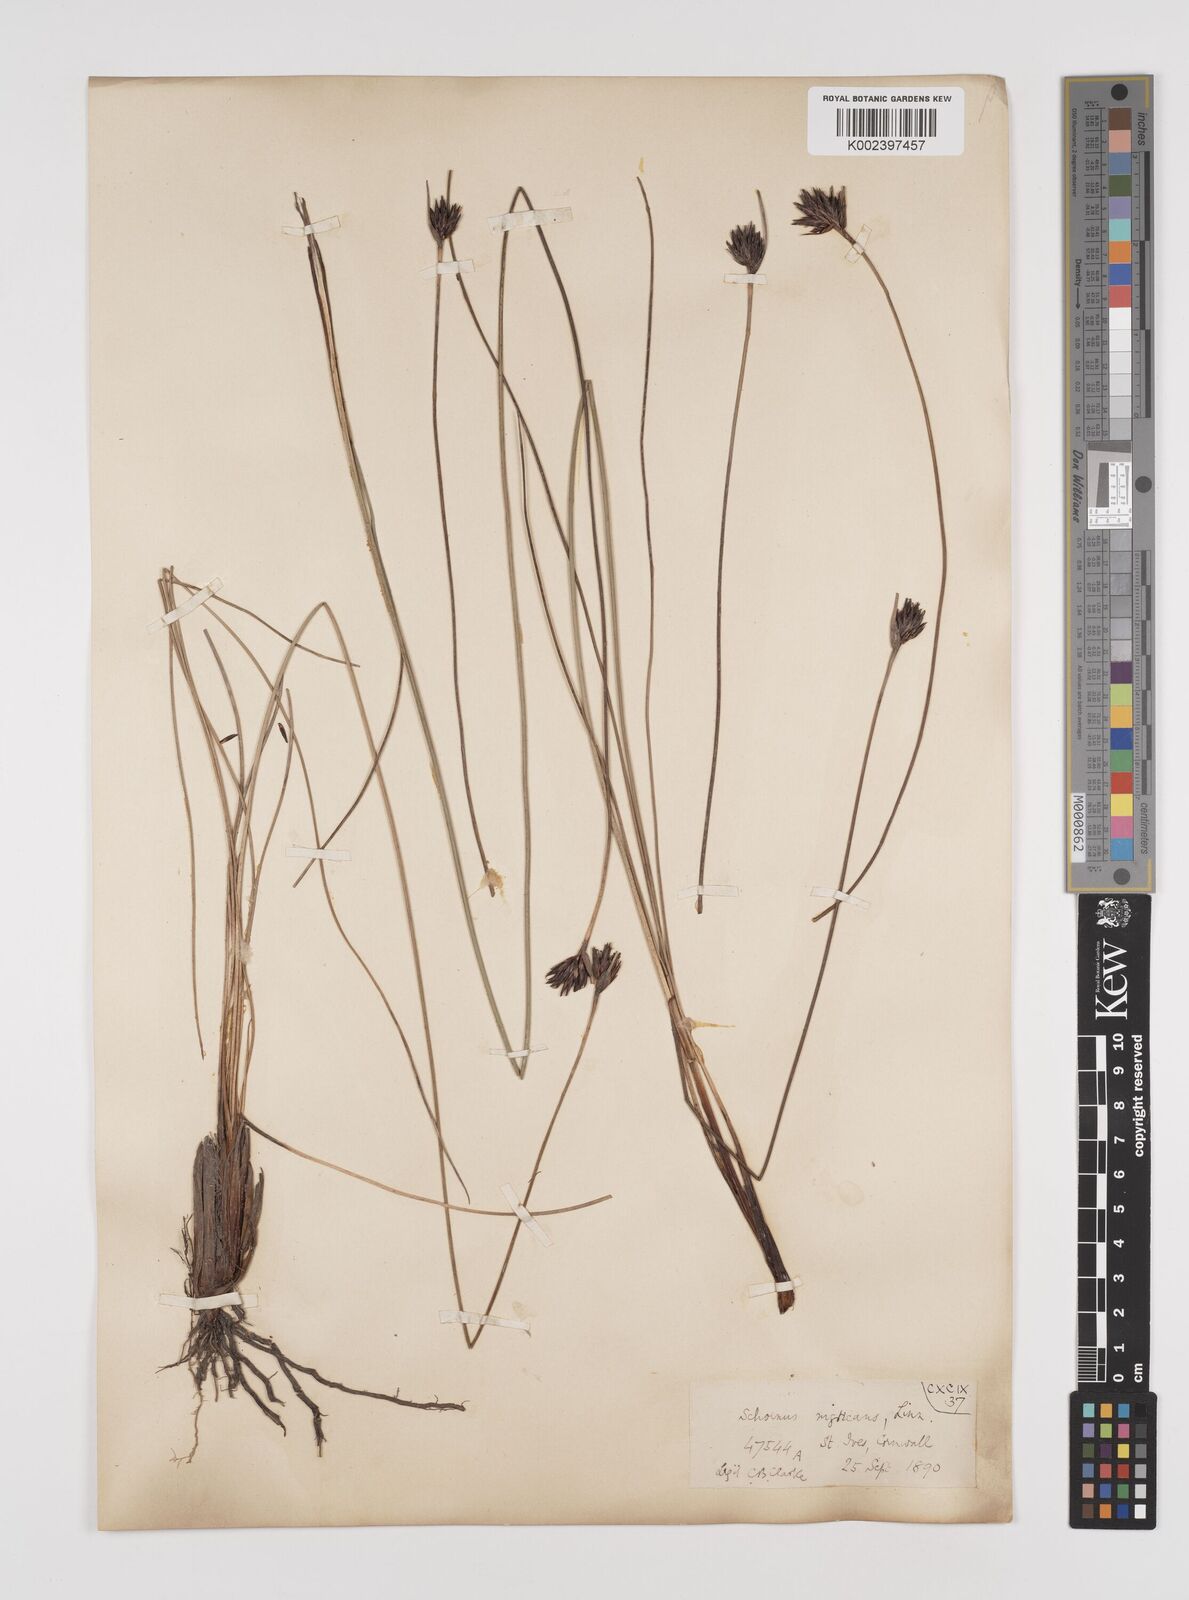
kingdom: Plantae
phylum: Tracheophyta
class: Liliopsida
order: Poales
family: Cyperaceae
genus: Schoenus
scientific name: Schoenus nigricans
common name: Black bog-rush
